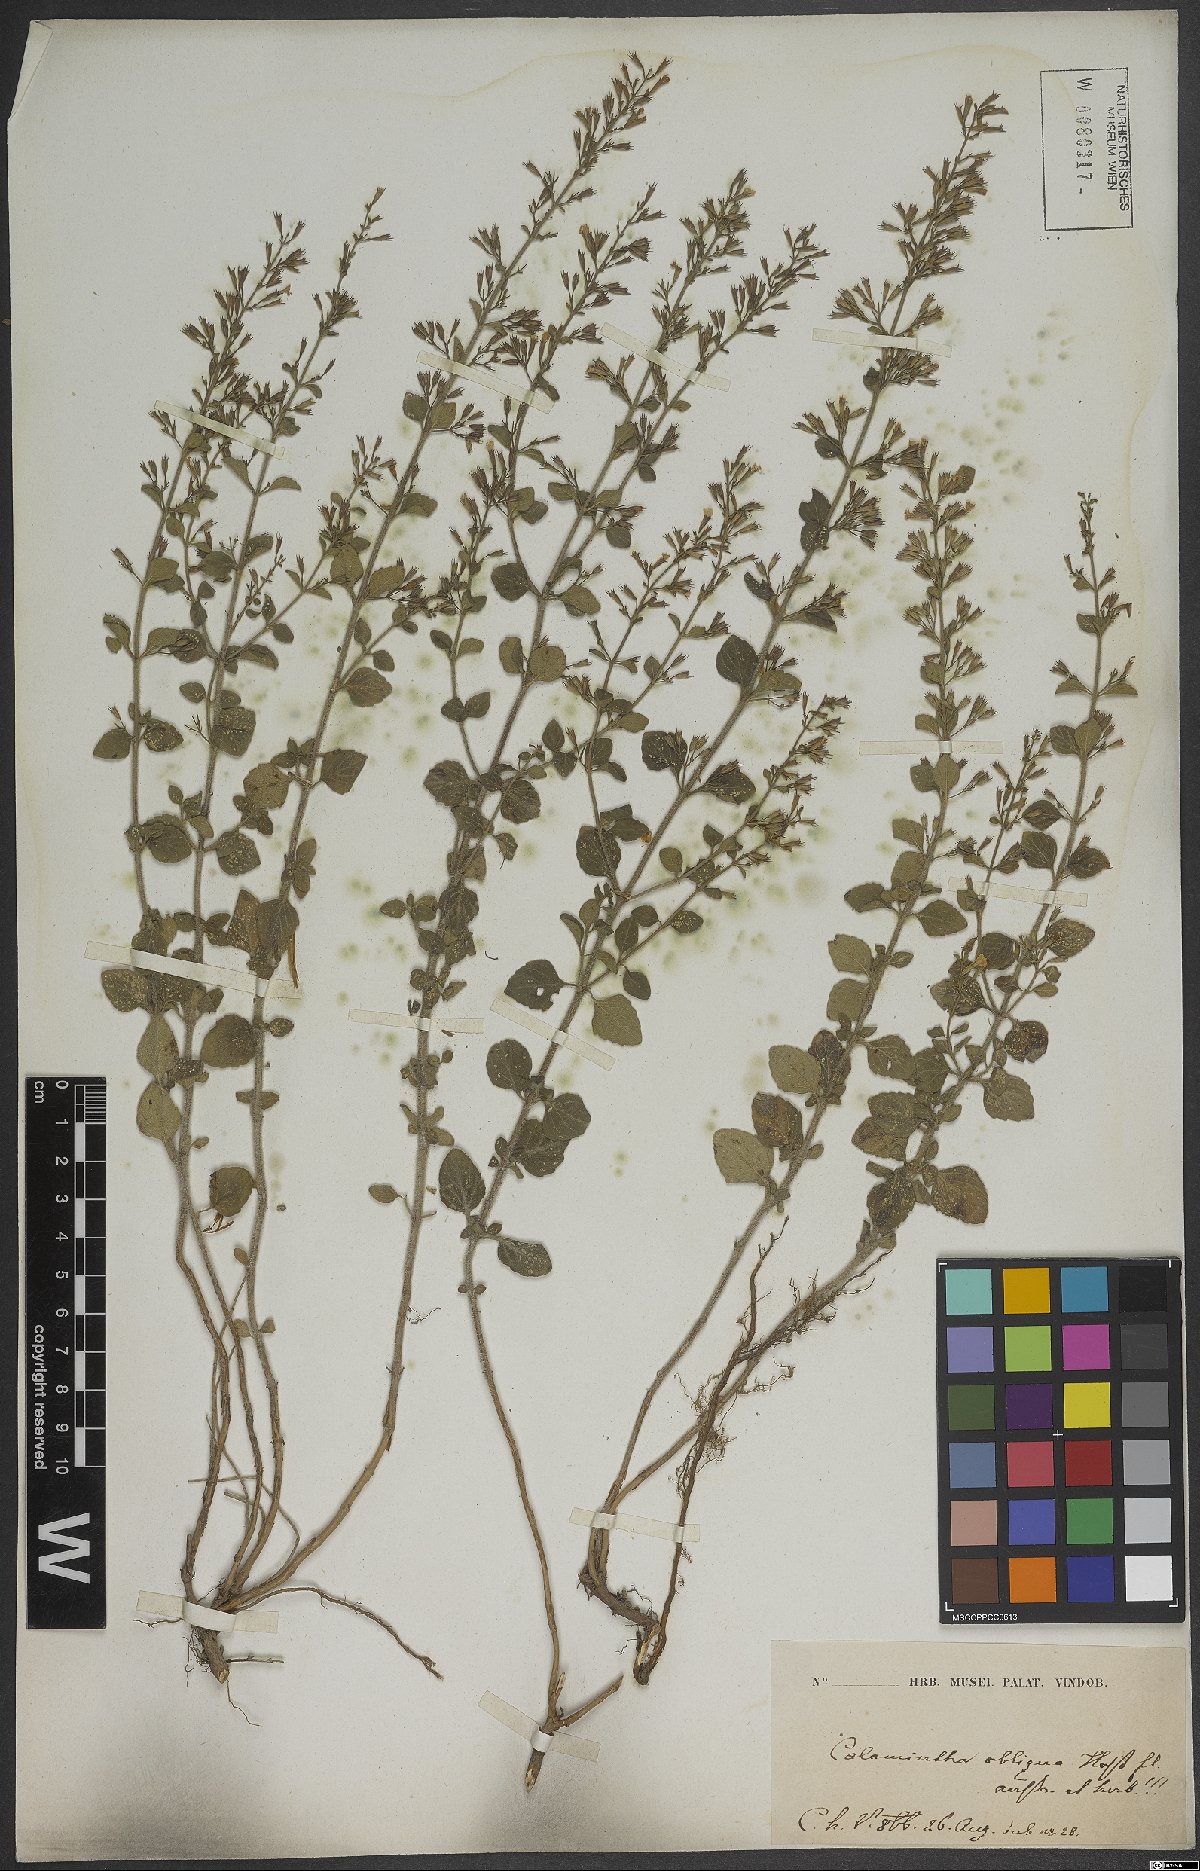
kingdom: Plantae
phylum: Tracheophyta
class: Magnoliopsida
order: Lamiales
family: Lamiaceae
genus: Clinopodium
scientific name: Clinopodium nepeta
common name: Lesser calamint
